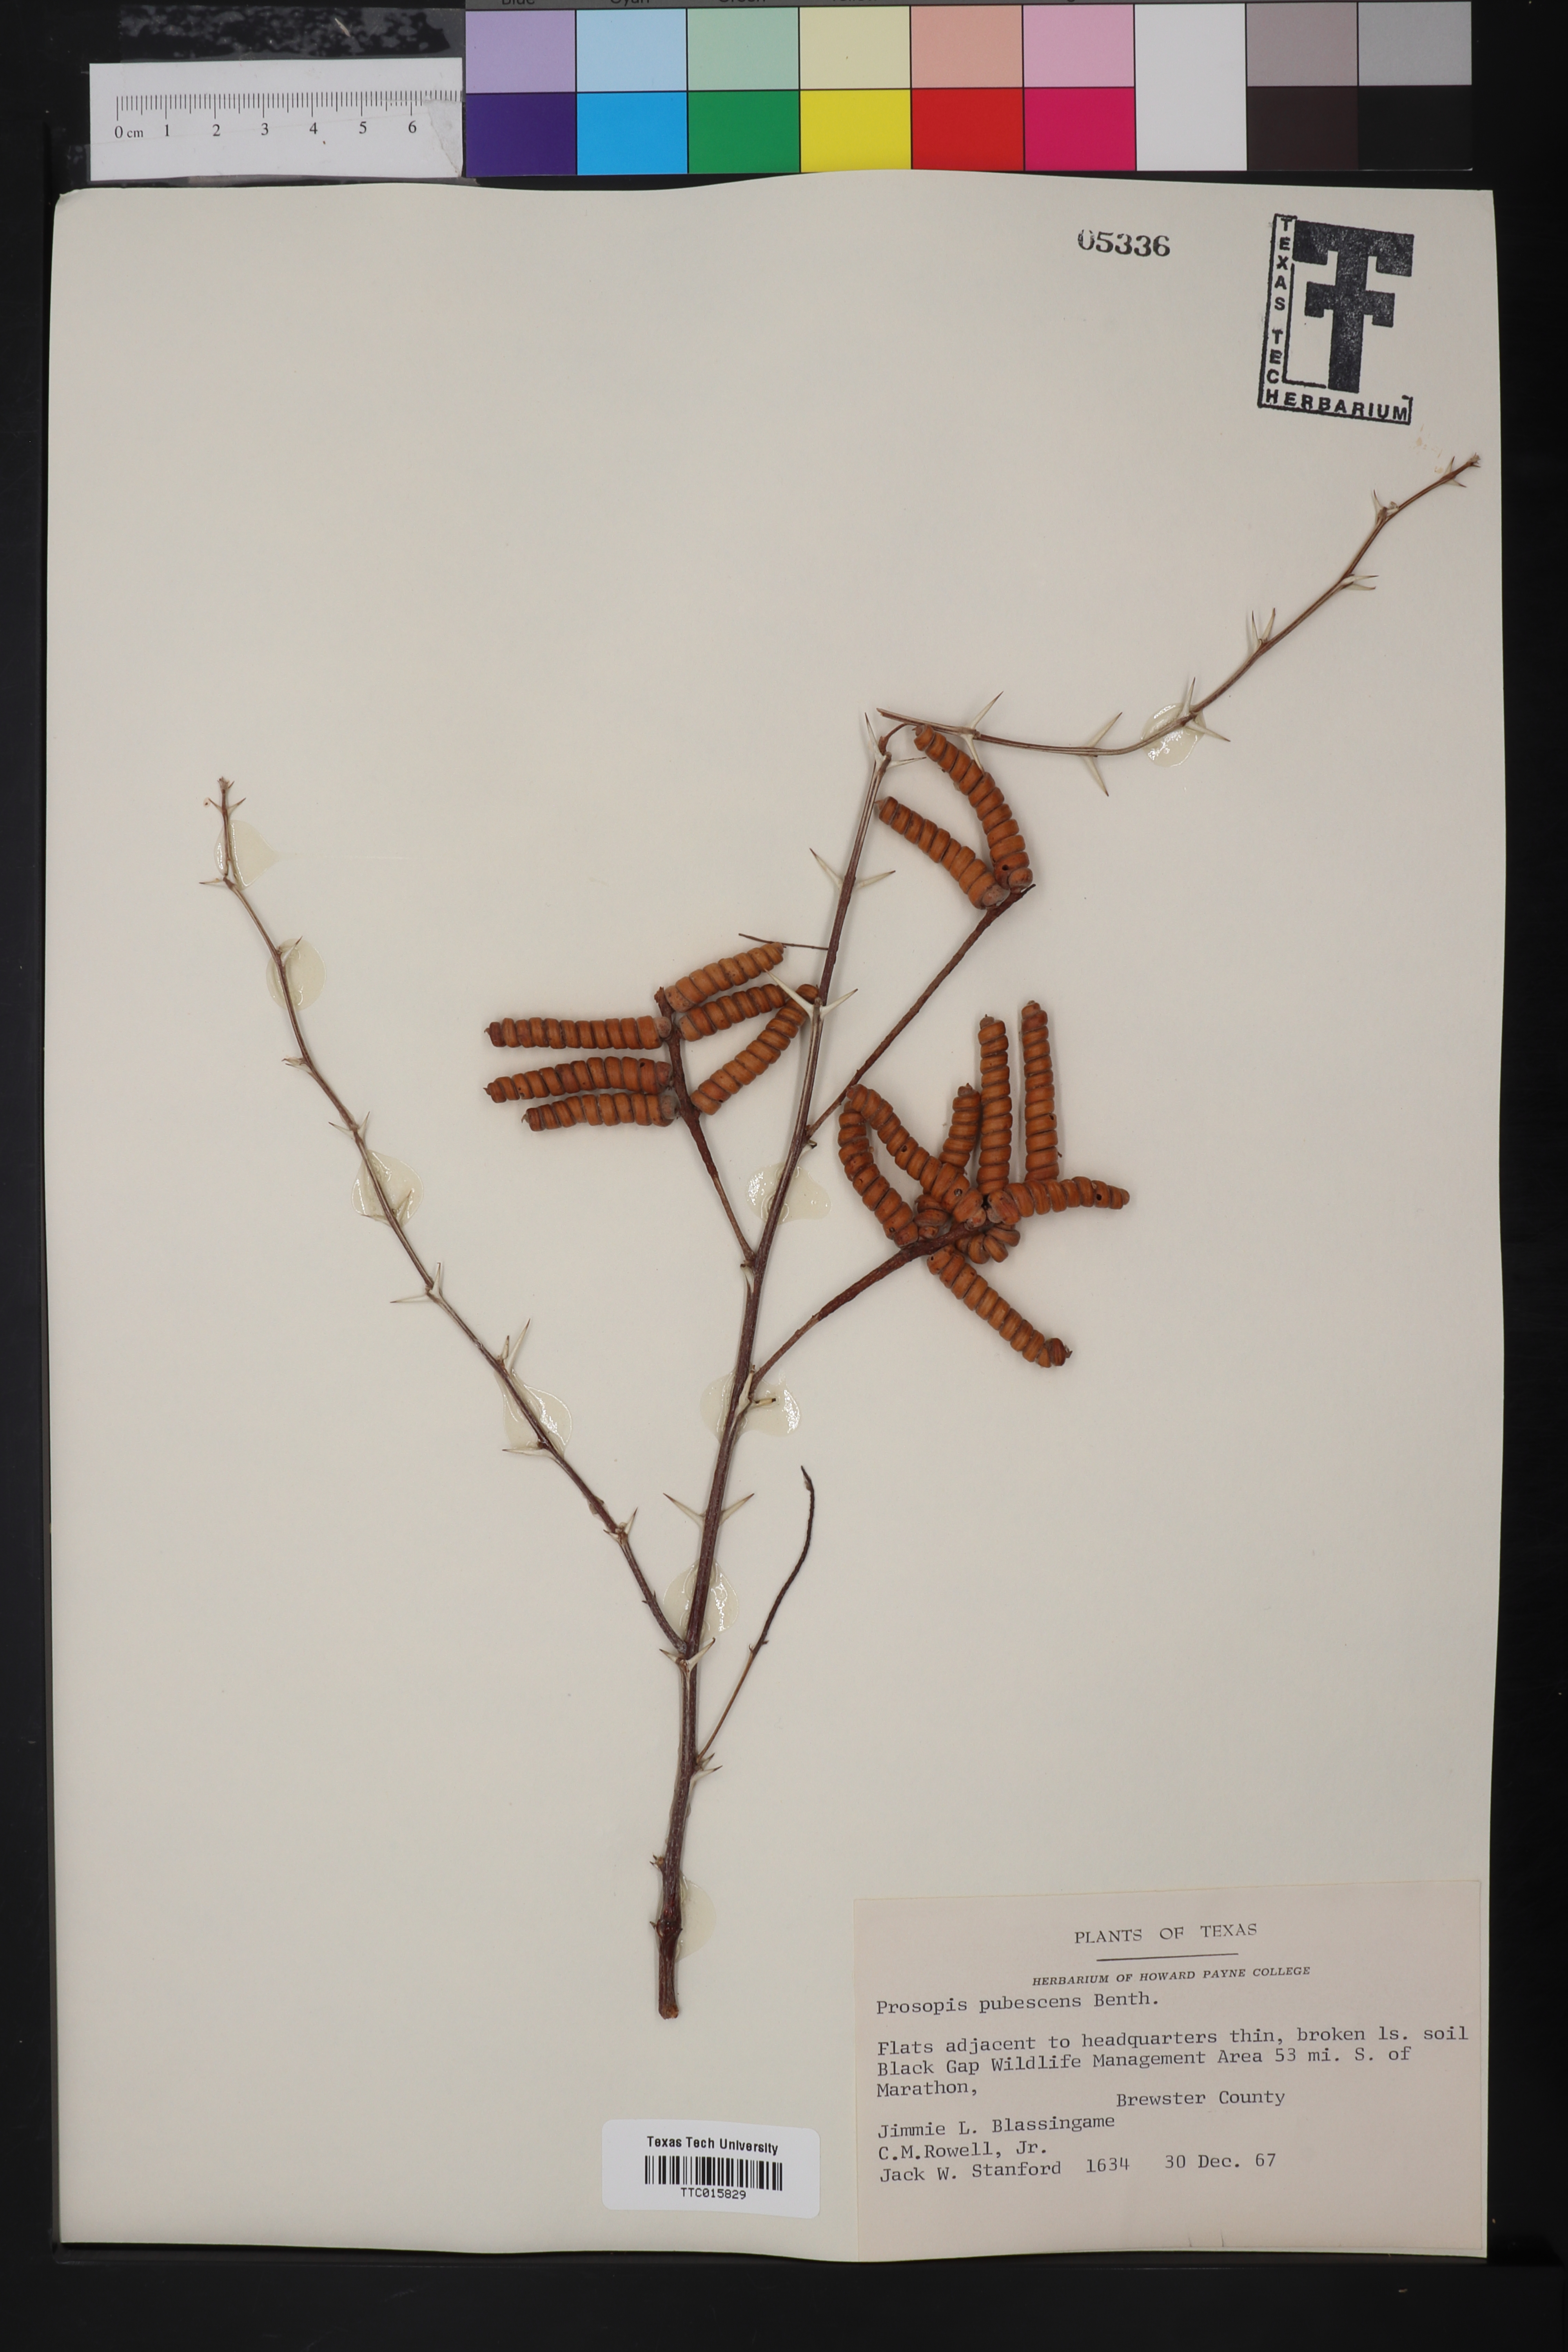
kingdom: Plantae
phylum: Tracheophyta
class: Magnoliopsida
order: Fabales
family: Fabaceae
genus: Prosopis
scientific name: Prosopis pubescens
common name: Screw-bean
